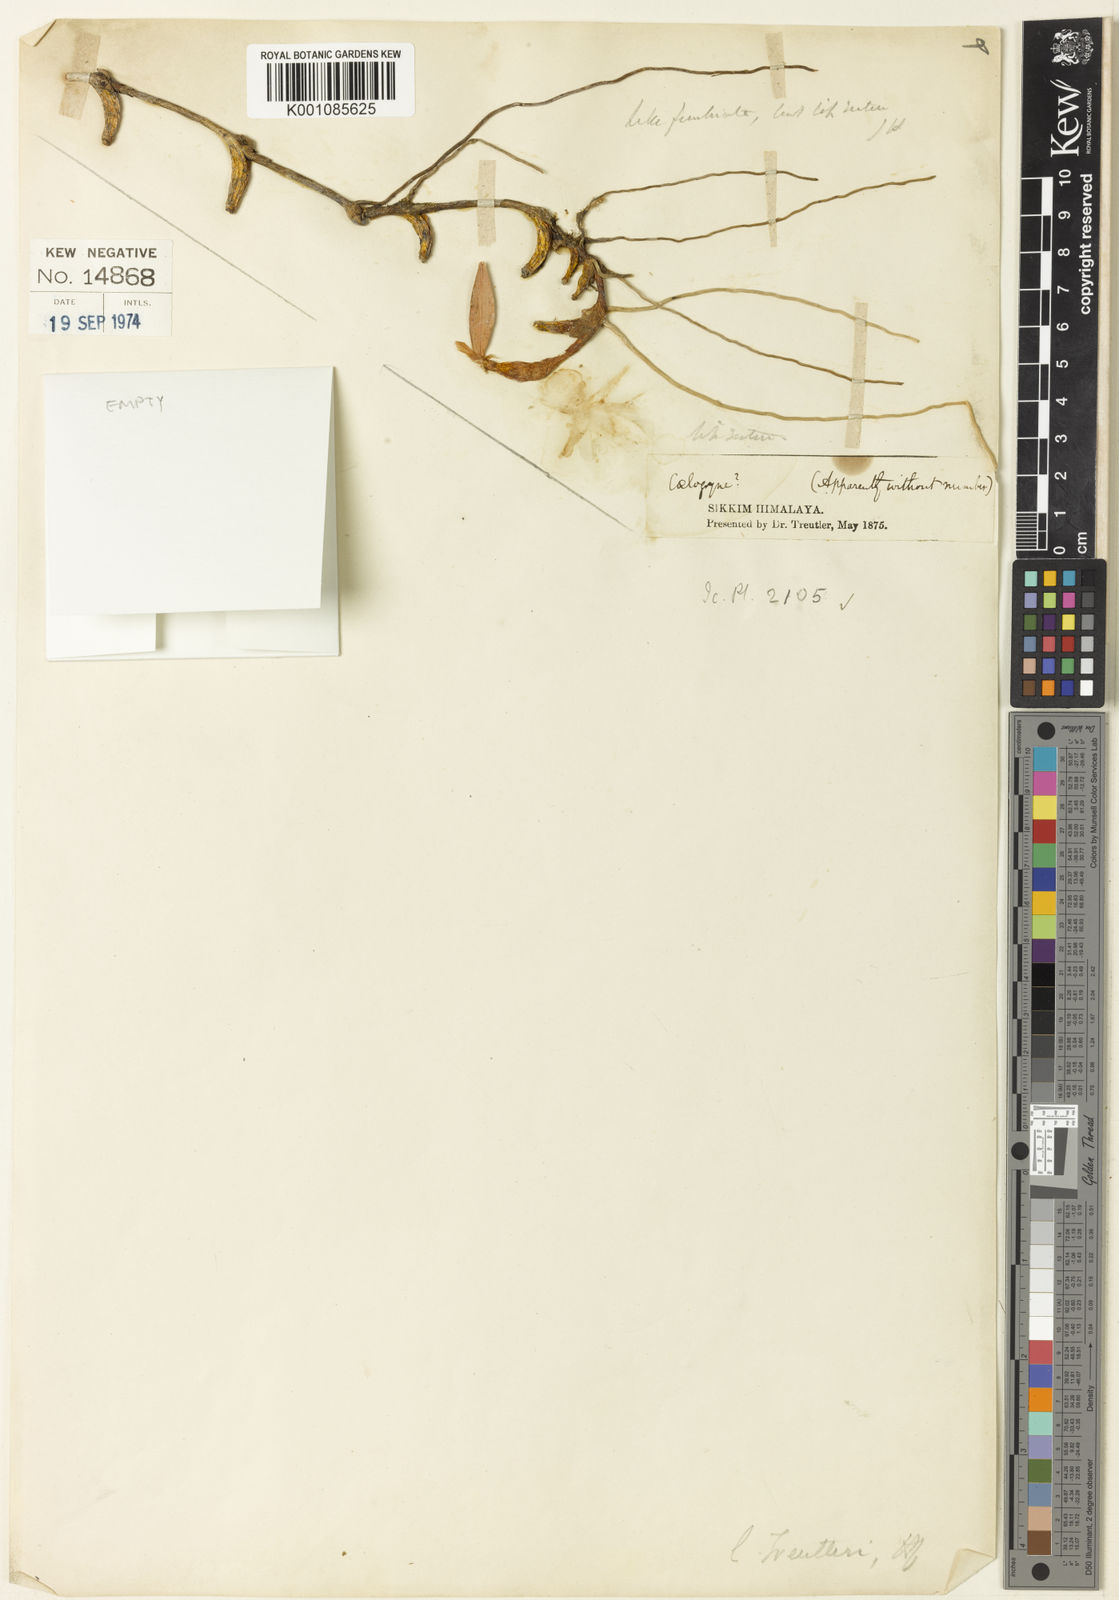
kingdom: Plantae
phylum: Tracheophyta
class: Liliopsida
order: Asparagales
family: Orchidaceae
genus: Dendrobium
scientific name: Dendrobium rotundatum
